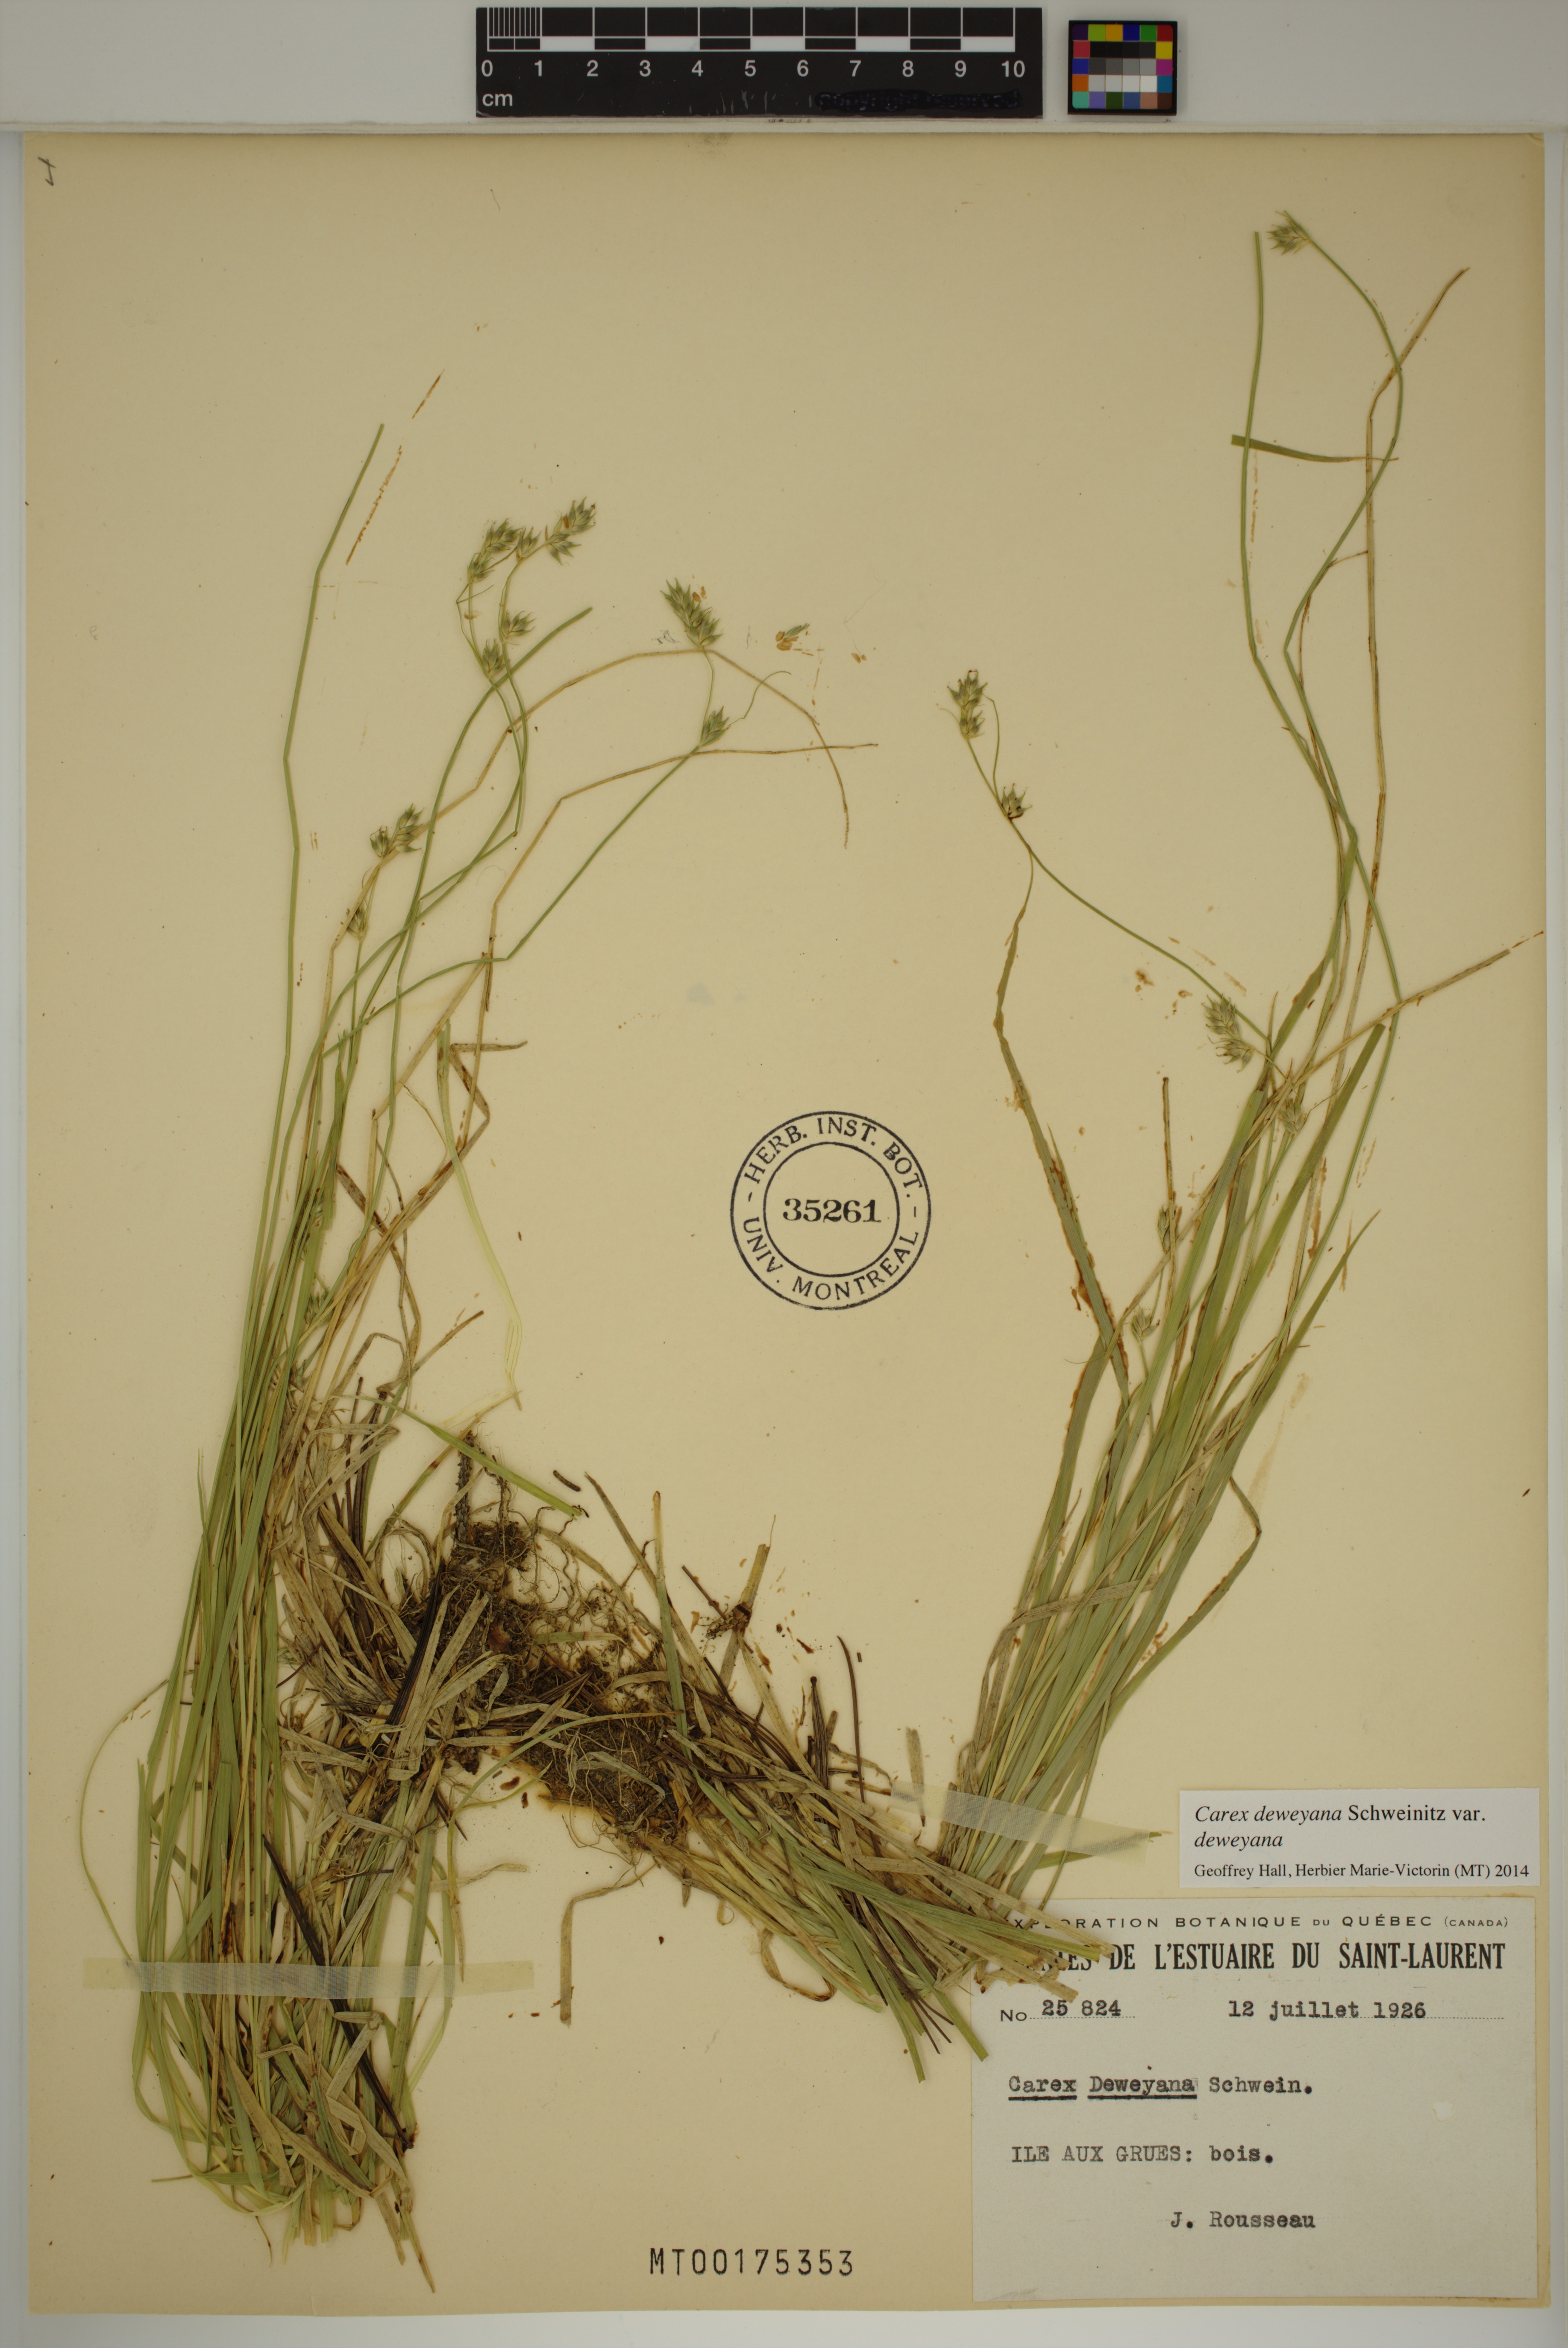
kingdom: Plantae
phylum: Tracheophyta
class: Liliopsida
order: Poales
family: Cyperaceae
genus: Carex
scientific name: Carex deweyana
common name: Dewey's sedge
